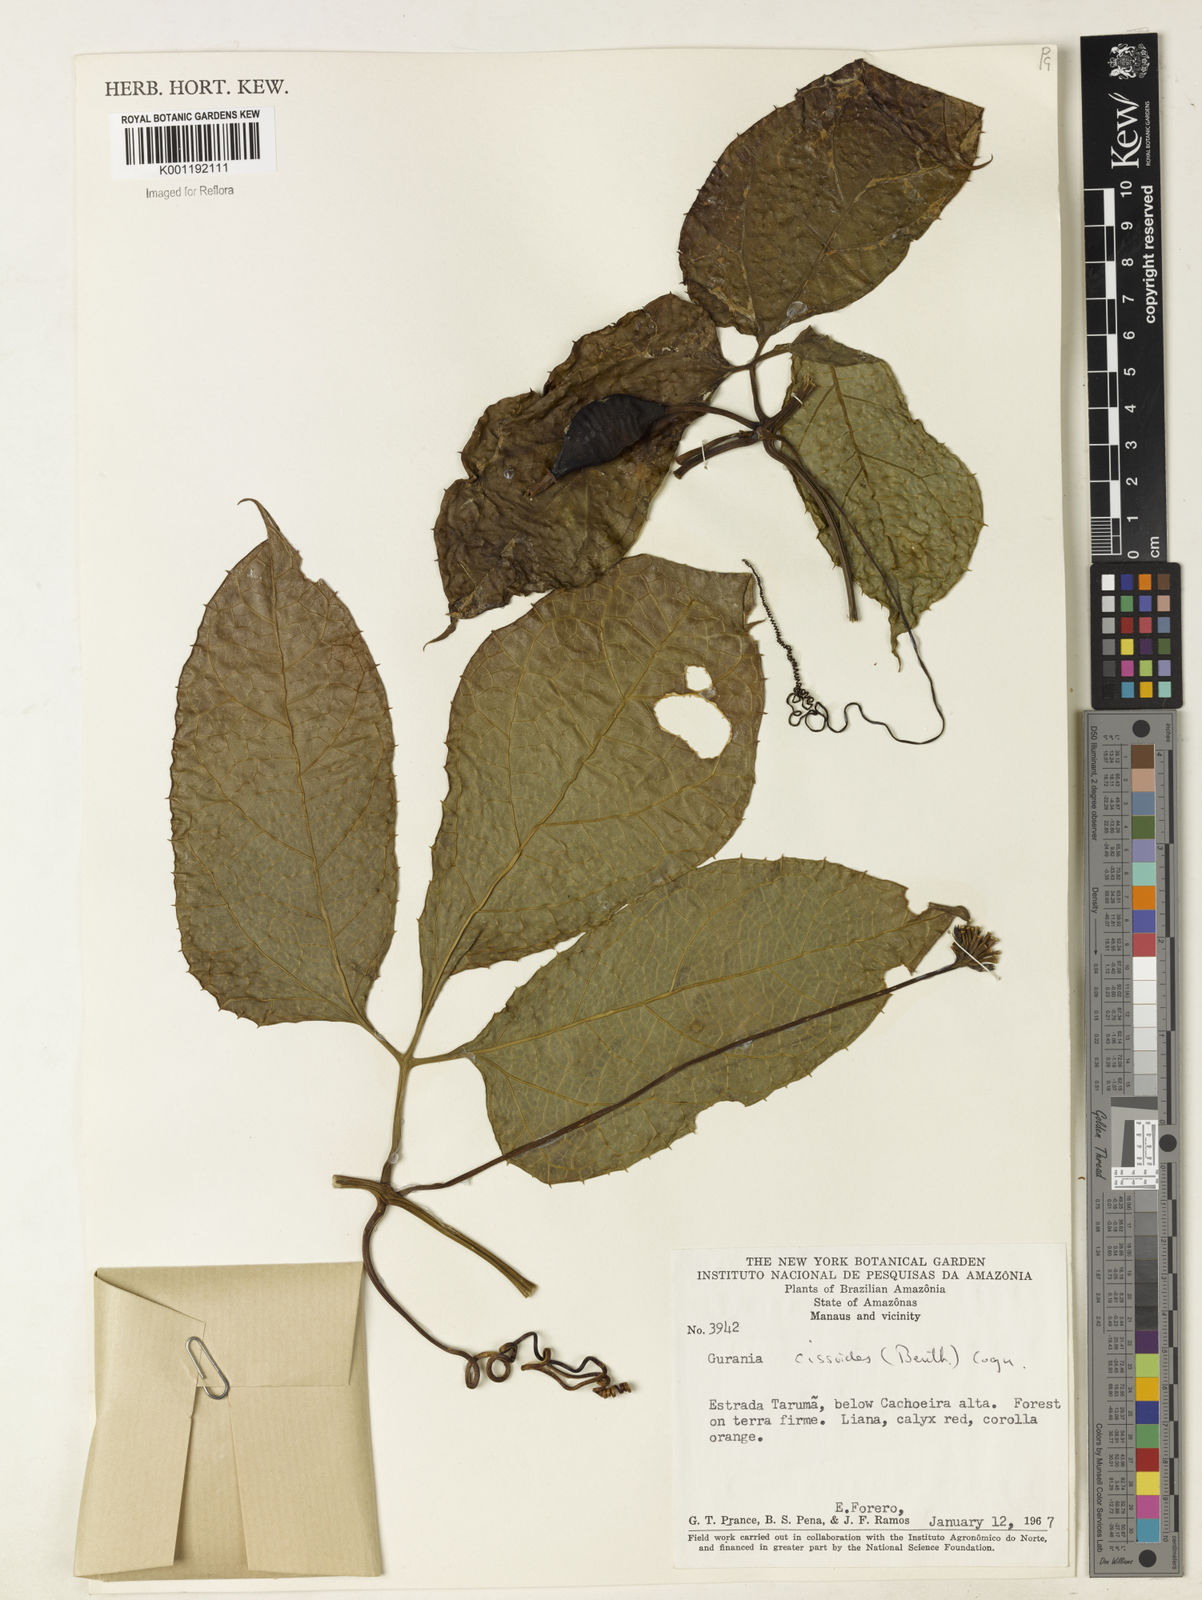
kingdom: Plantae
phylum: Tracheophyta
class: Magnoliopsida
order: Cucurbitales
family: Cucurbitaceae
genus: Gurania
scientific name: Gurania bignoniacea
